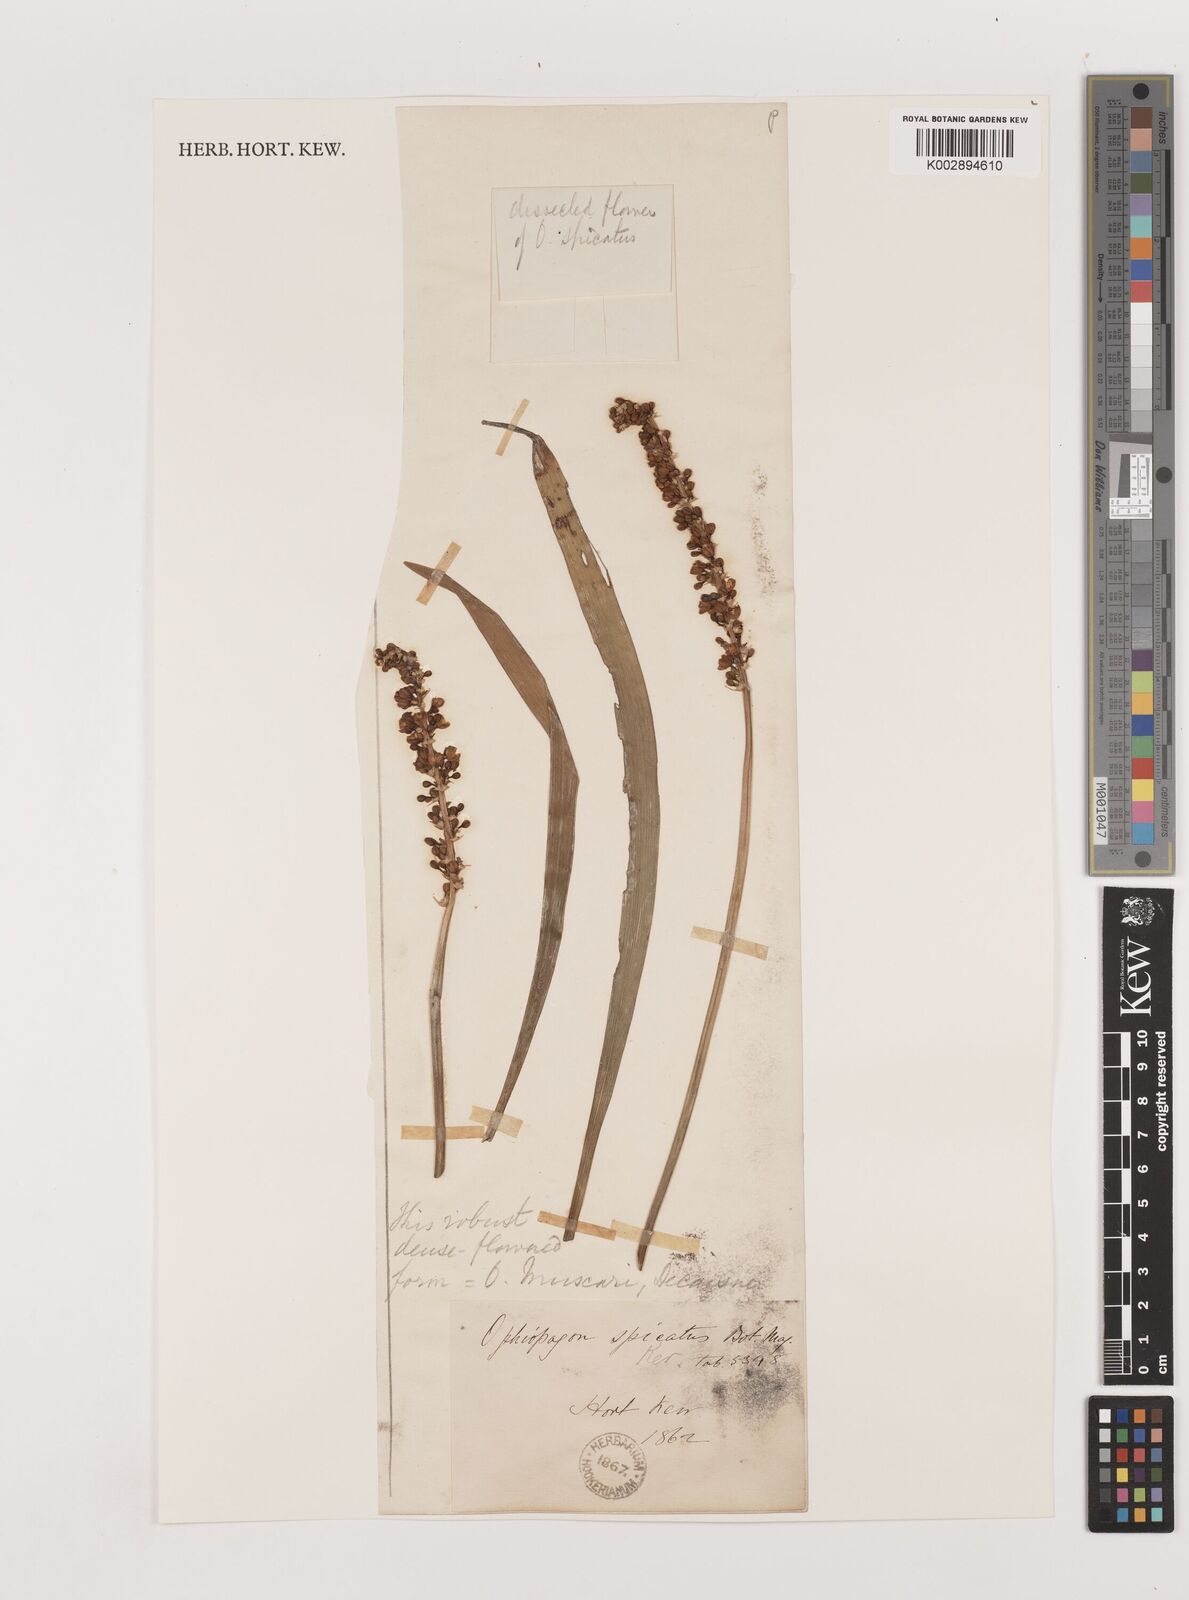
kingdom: Plantae
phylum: Tracheophyta
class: Liliopsida
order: Asparagales
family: Asparagaceae
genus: Liriope
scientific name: Liriope muscari
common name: Big blue lilyturf
